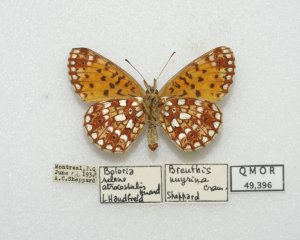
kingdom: Animalia
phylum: Arthropoda
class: Insecta
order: Lepidoptera
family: Nymphalidae
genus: Boloria
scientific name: Boloria selene
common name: Silver-bordered Fritillary
